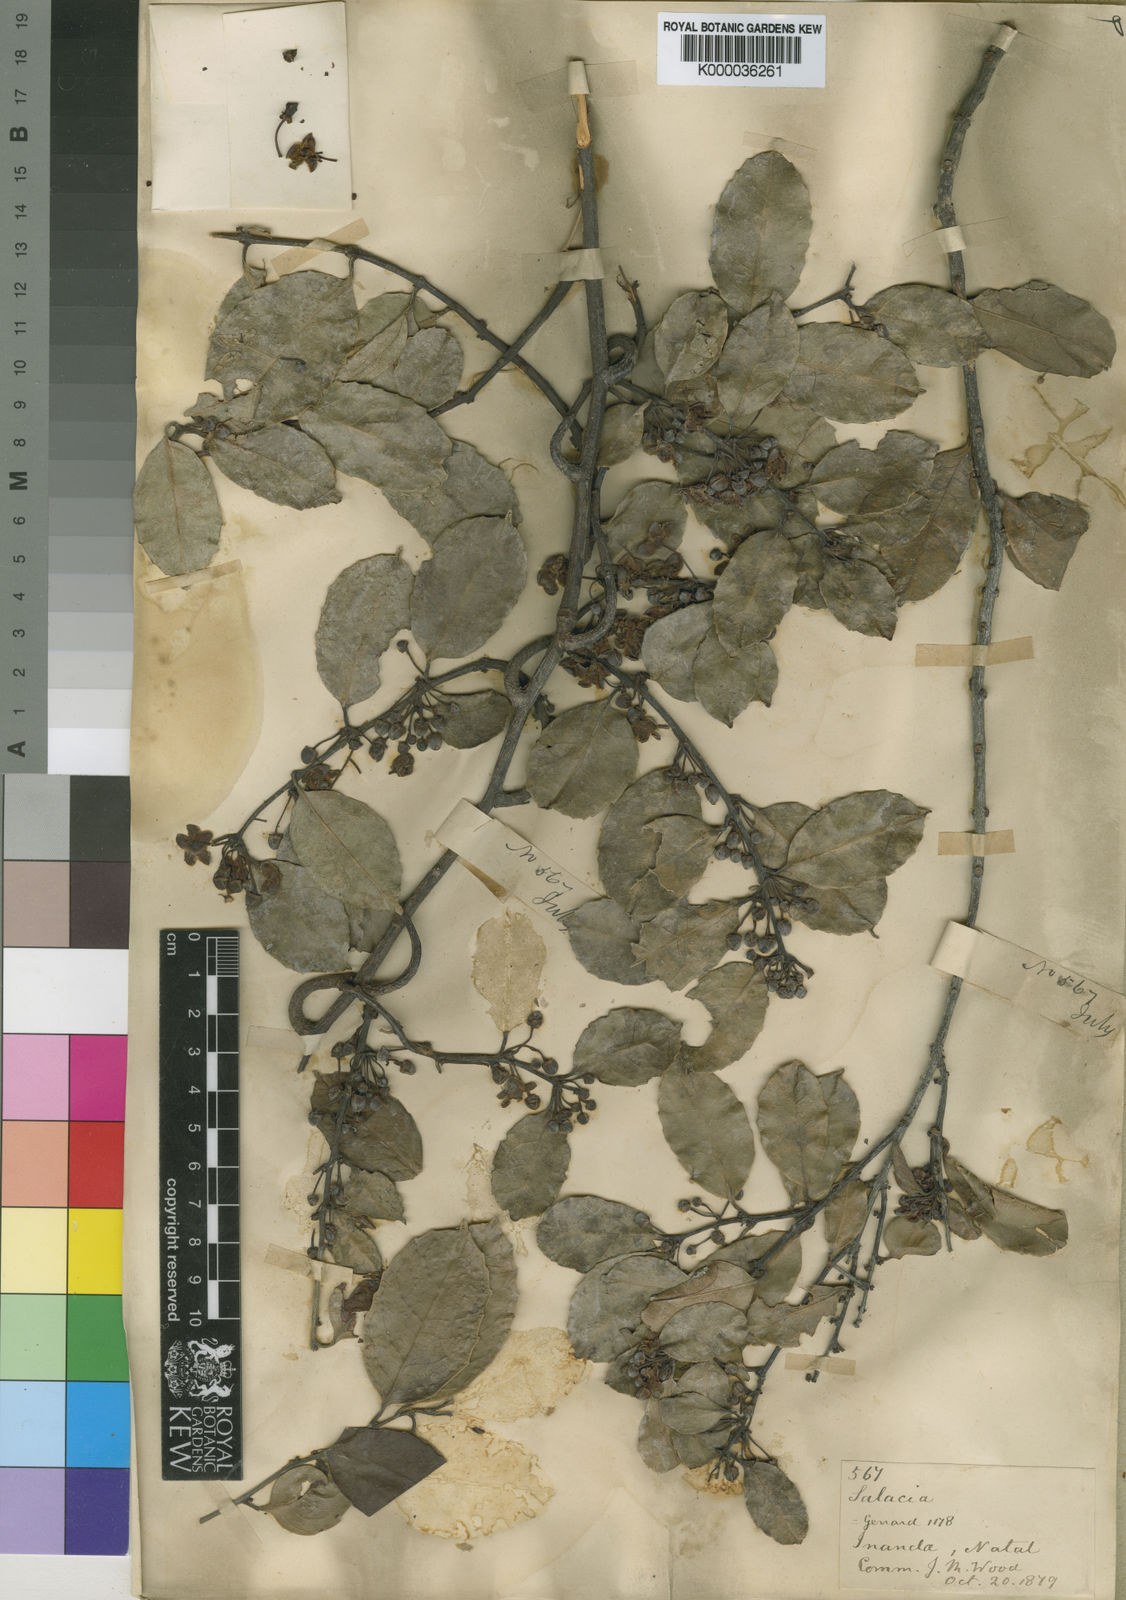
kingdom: Plantae
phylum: Tracheophyta
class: Magnoliopsida
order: Celastrales
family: Celastraceae
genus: Salacia
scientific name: Salacia gerrardii
